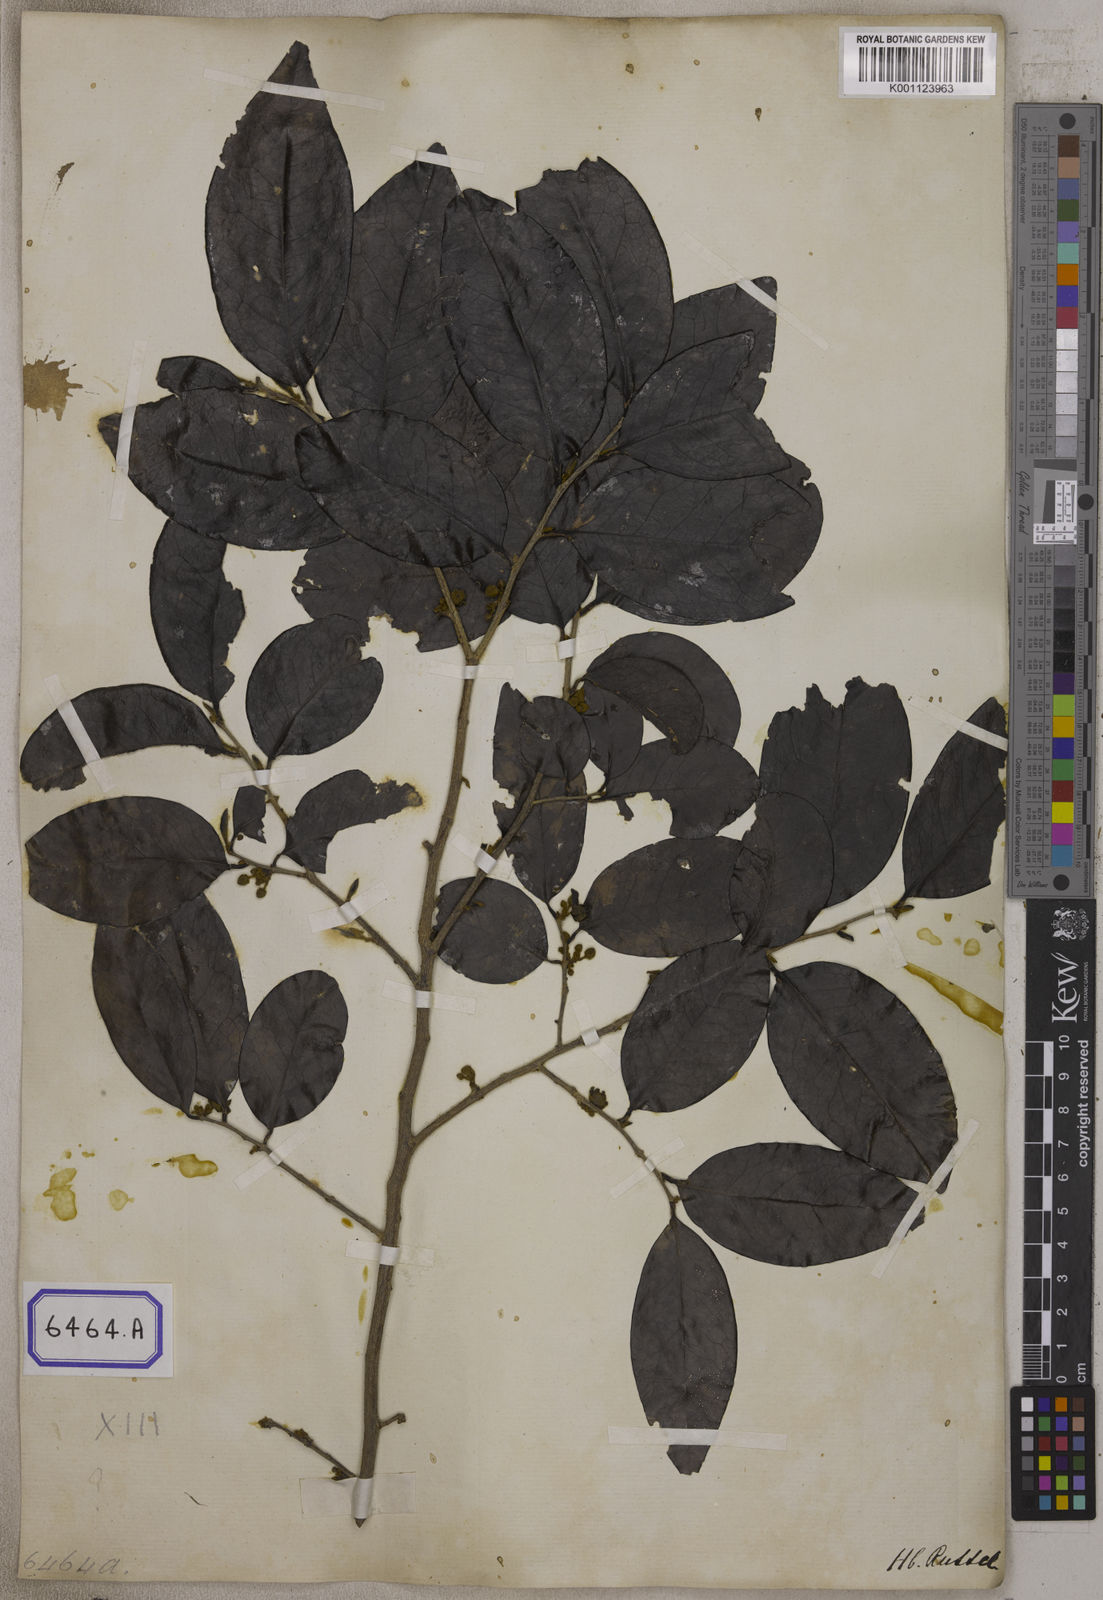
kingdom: Plantae
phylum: Tracheophyta
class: Magnoliopsida
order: Magnoliales
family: Annonaceae
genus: Alphonsea
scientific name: Alphonsea lutea
